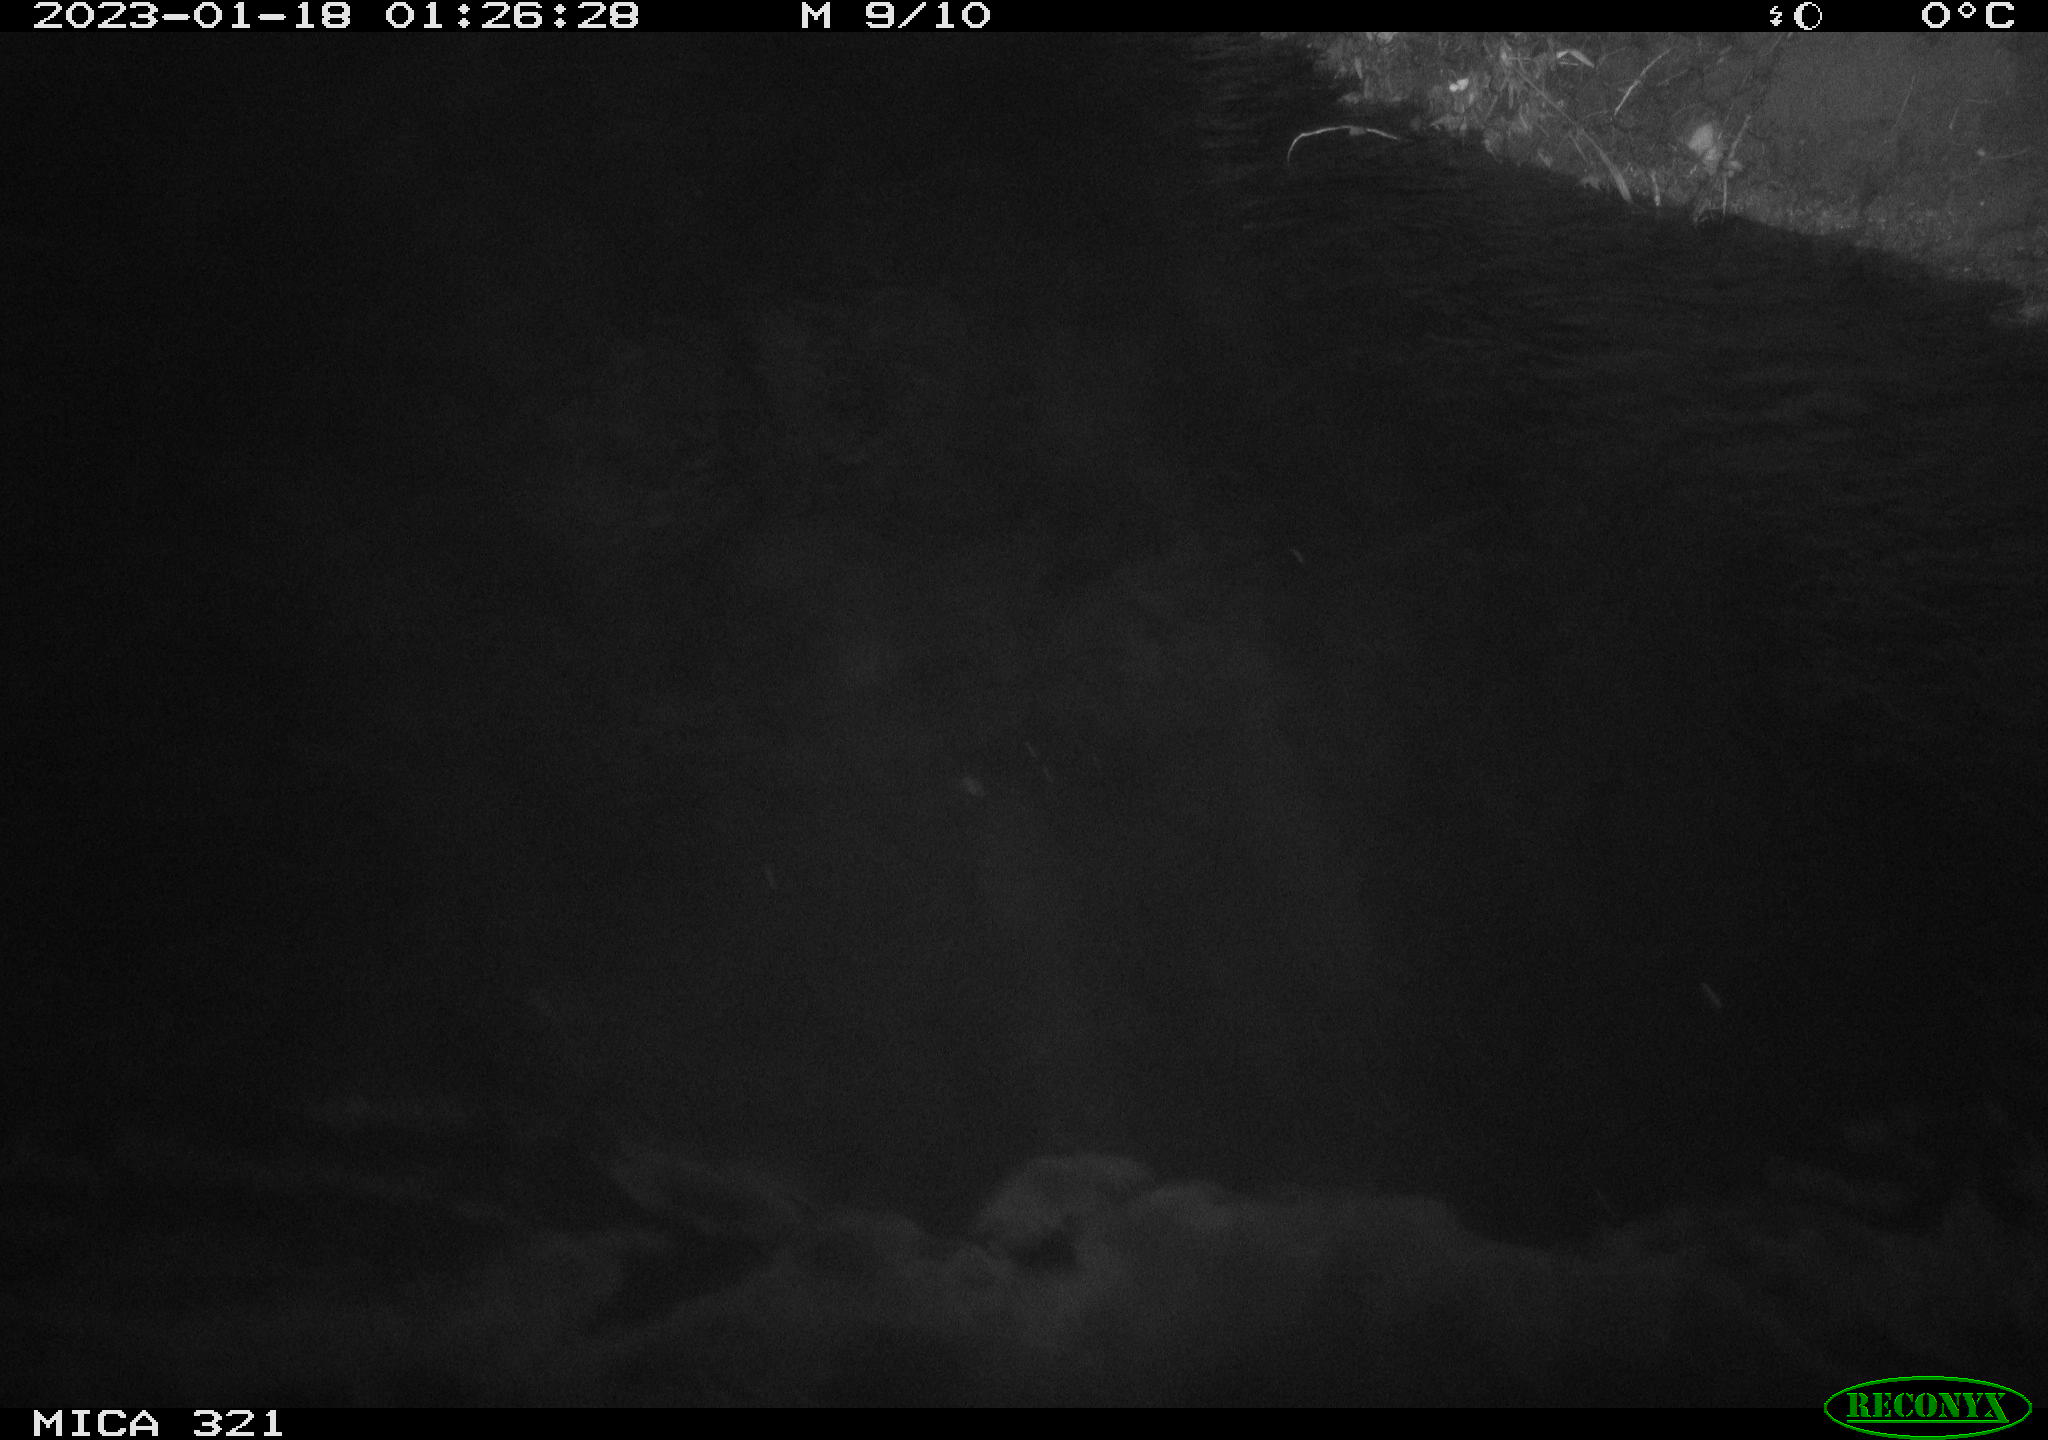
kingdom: Animalia
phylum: Chordata
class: Aves
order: Anseriformes
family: Anatidae
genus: Anas
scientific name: Anas
